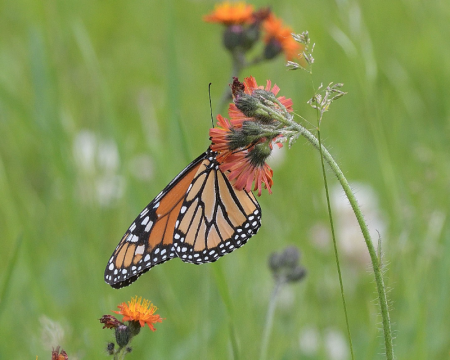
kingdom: Animalia
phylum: Arthropoda
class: Insecta
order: Lepidoptera
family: Nymphalidae
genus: Danaus
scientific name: Danaus plexippus
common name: Monarch
